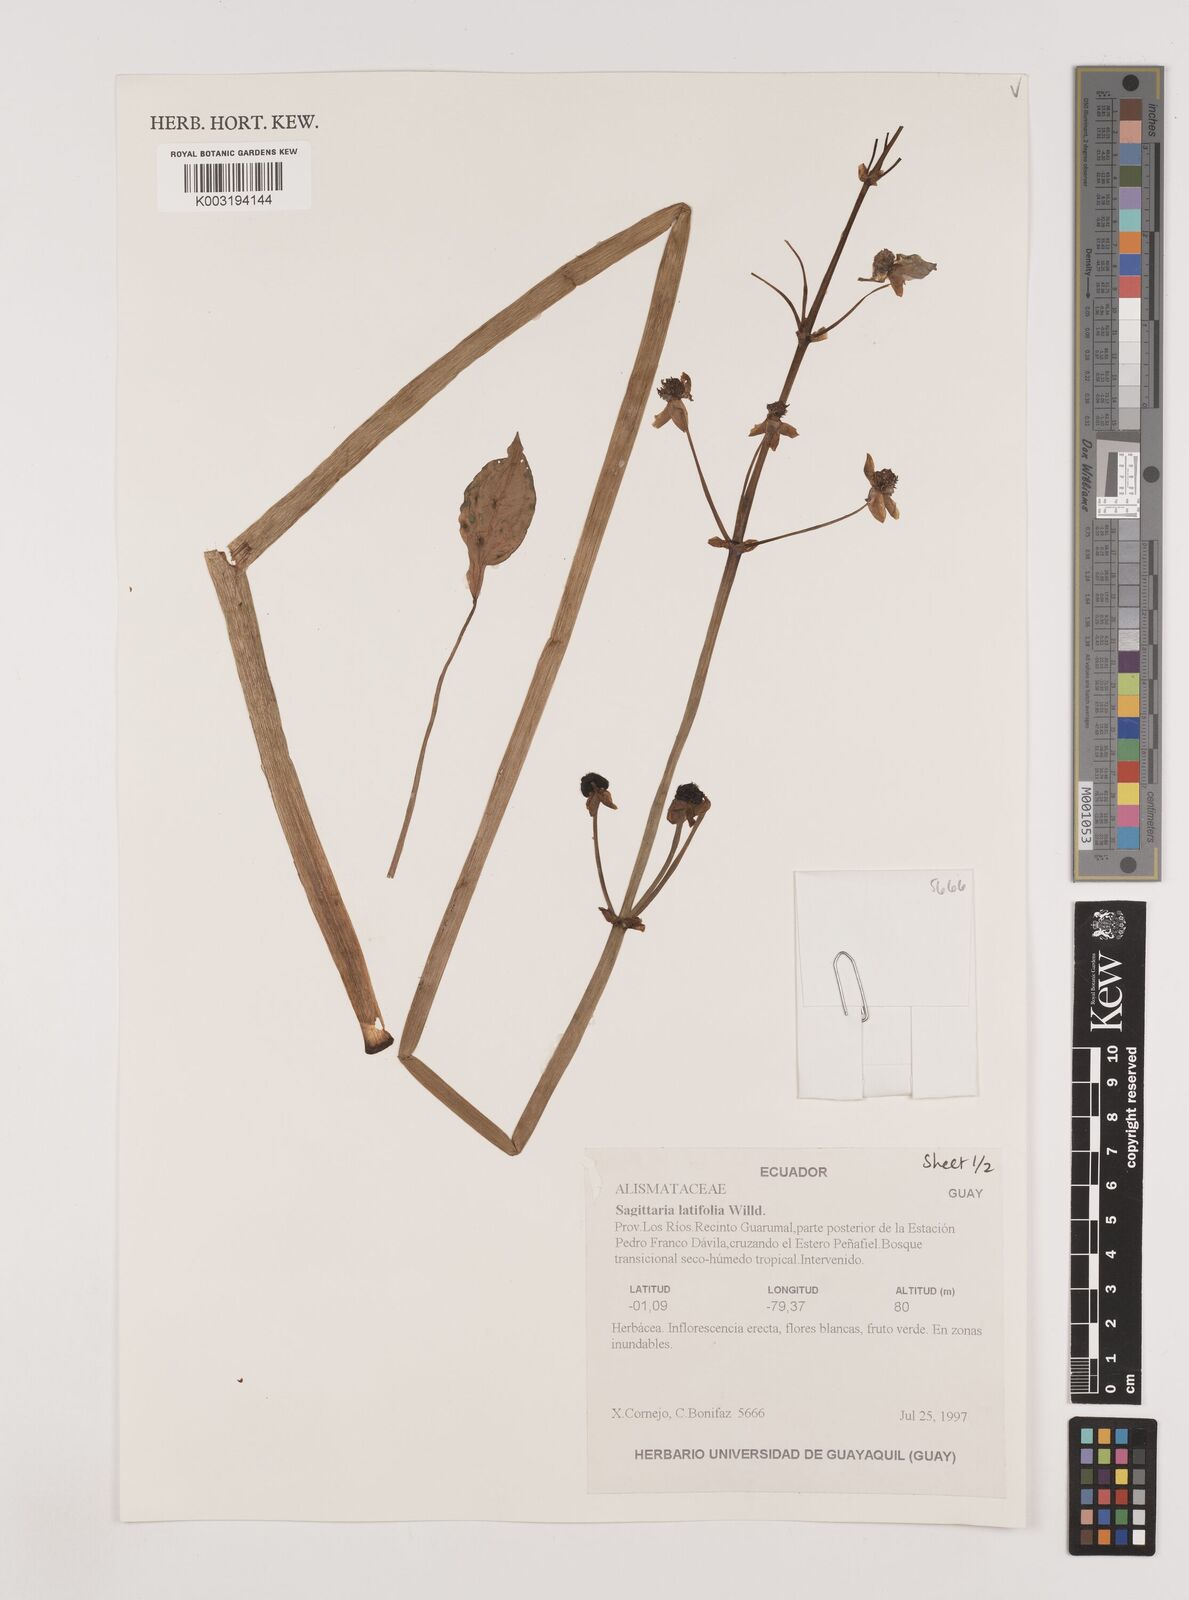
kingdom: Plantae
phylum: Tracheophyta
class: Liliopsida
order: Alismatales
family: Alismataceae
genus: Sagittaria
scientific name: Sagittaria latifolia
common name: Duck-potato
